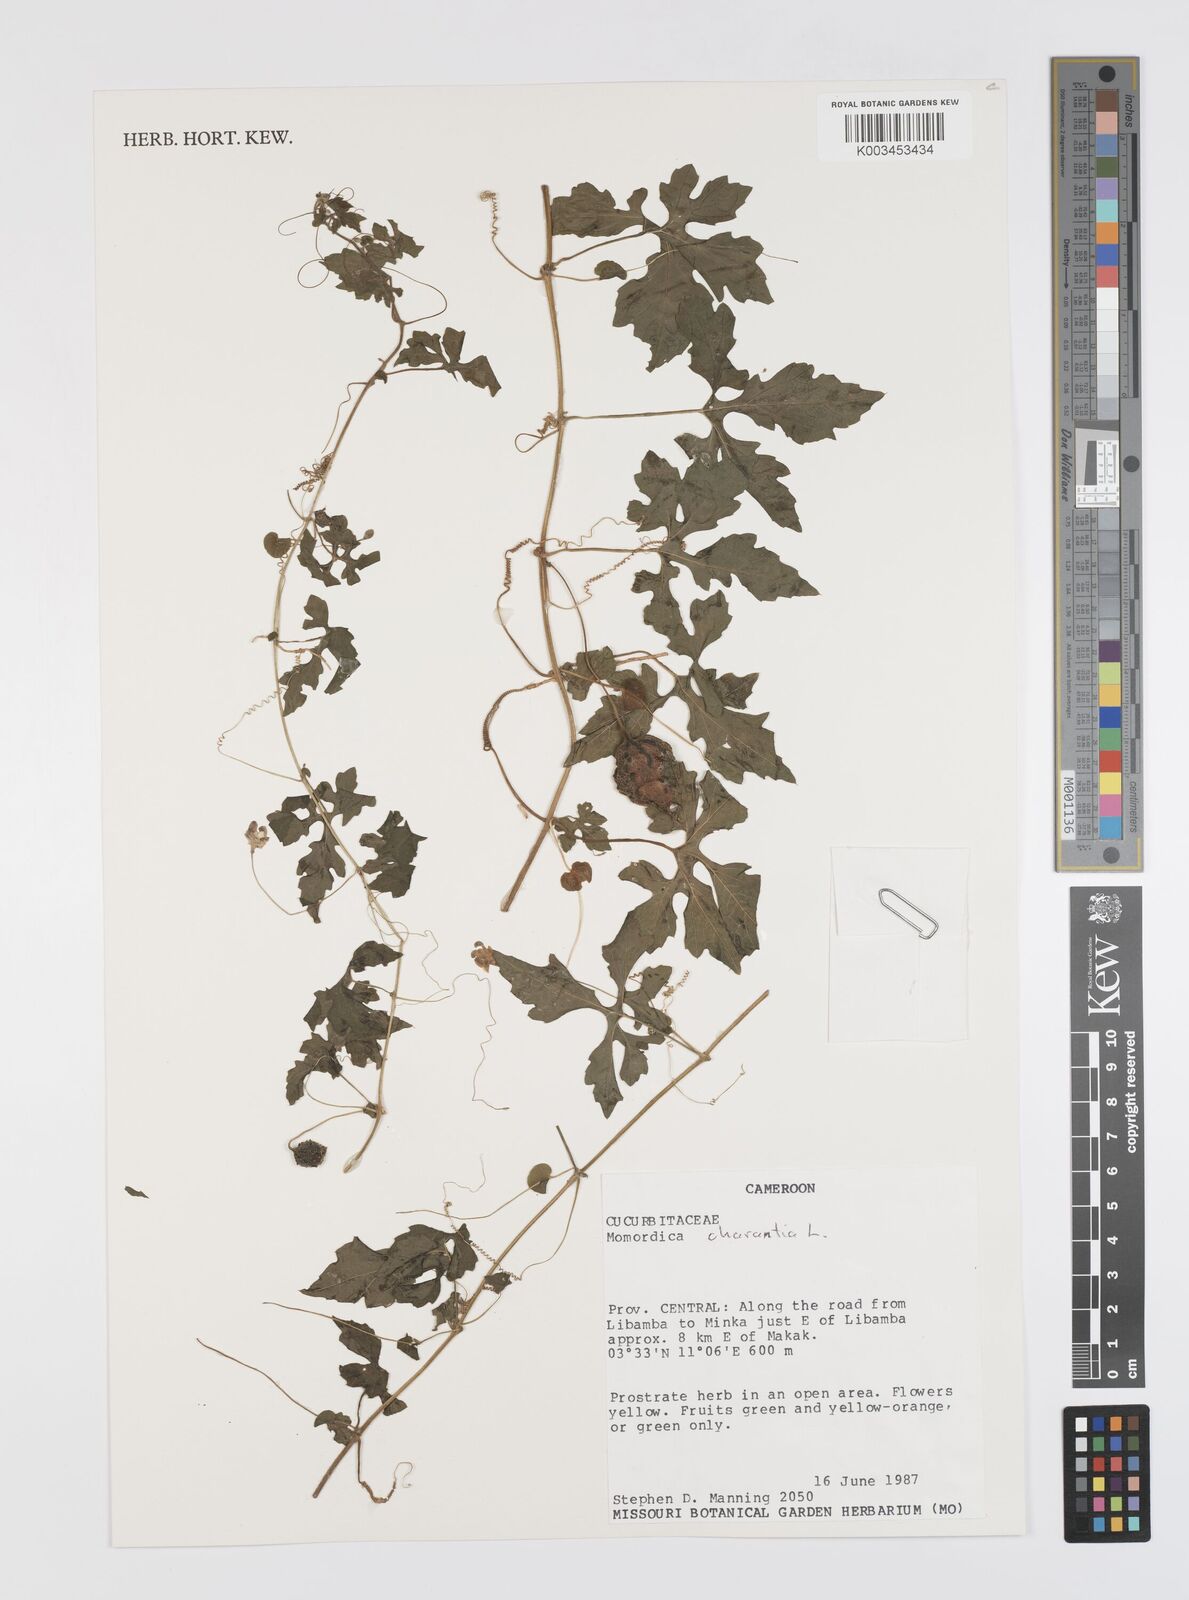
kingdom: Plantae
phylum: Tracheophyta
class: Magnoliopsida
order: Cucurbitales
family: Cucurbitaceae
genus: Momordica
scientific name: Momordica charantia
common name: Balsampear
